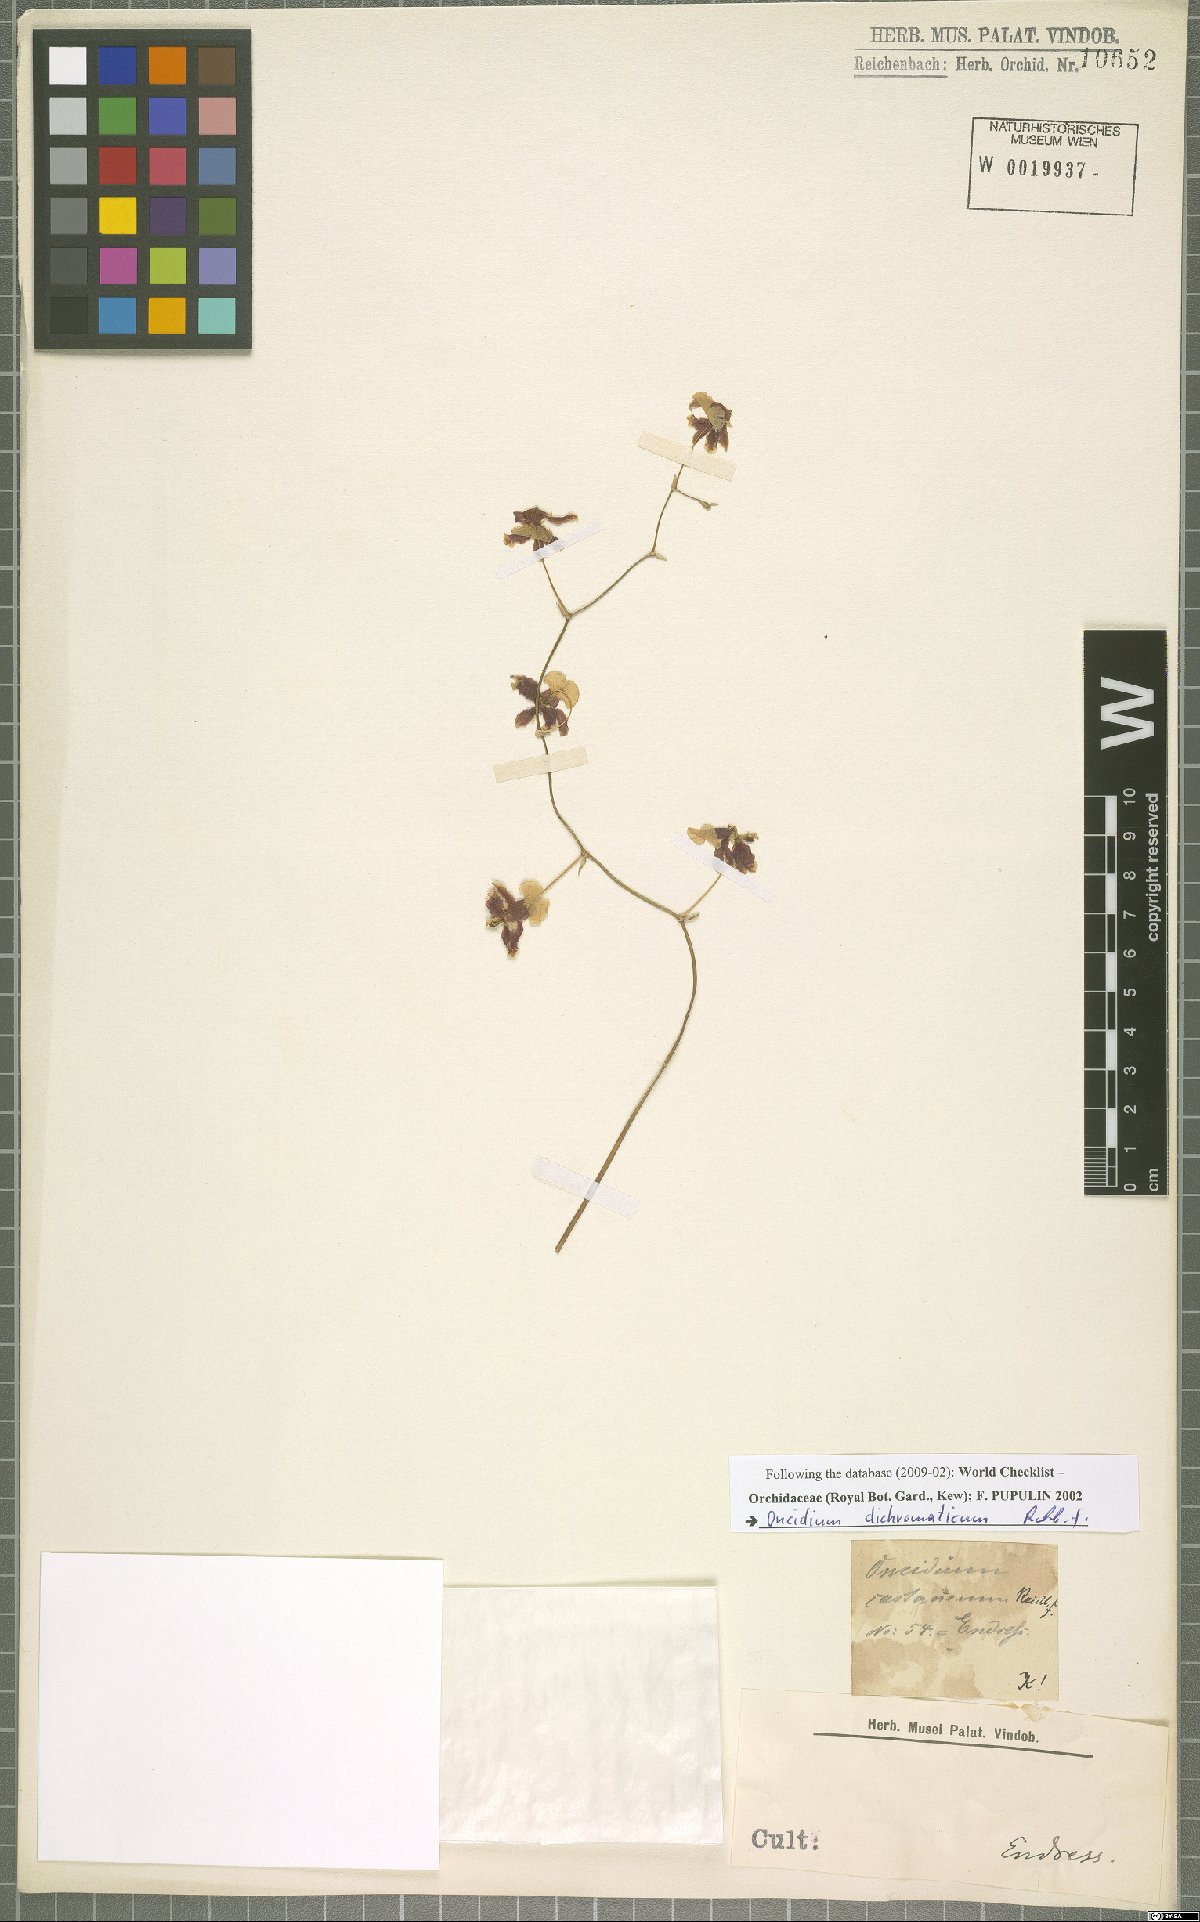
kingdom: Plantae
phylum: Tracheophyta
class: Liliopsida
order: Asparagales
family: Orchidaceae
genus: Oncidium
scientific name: Oncidium dichromaticum
